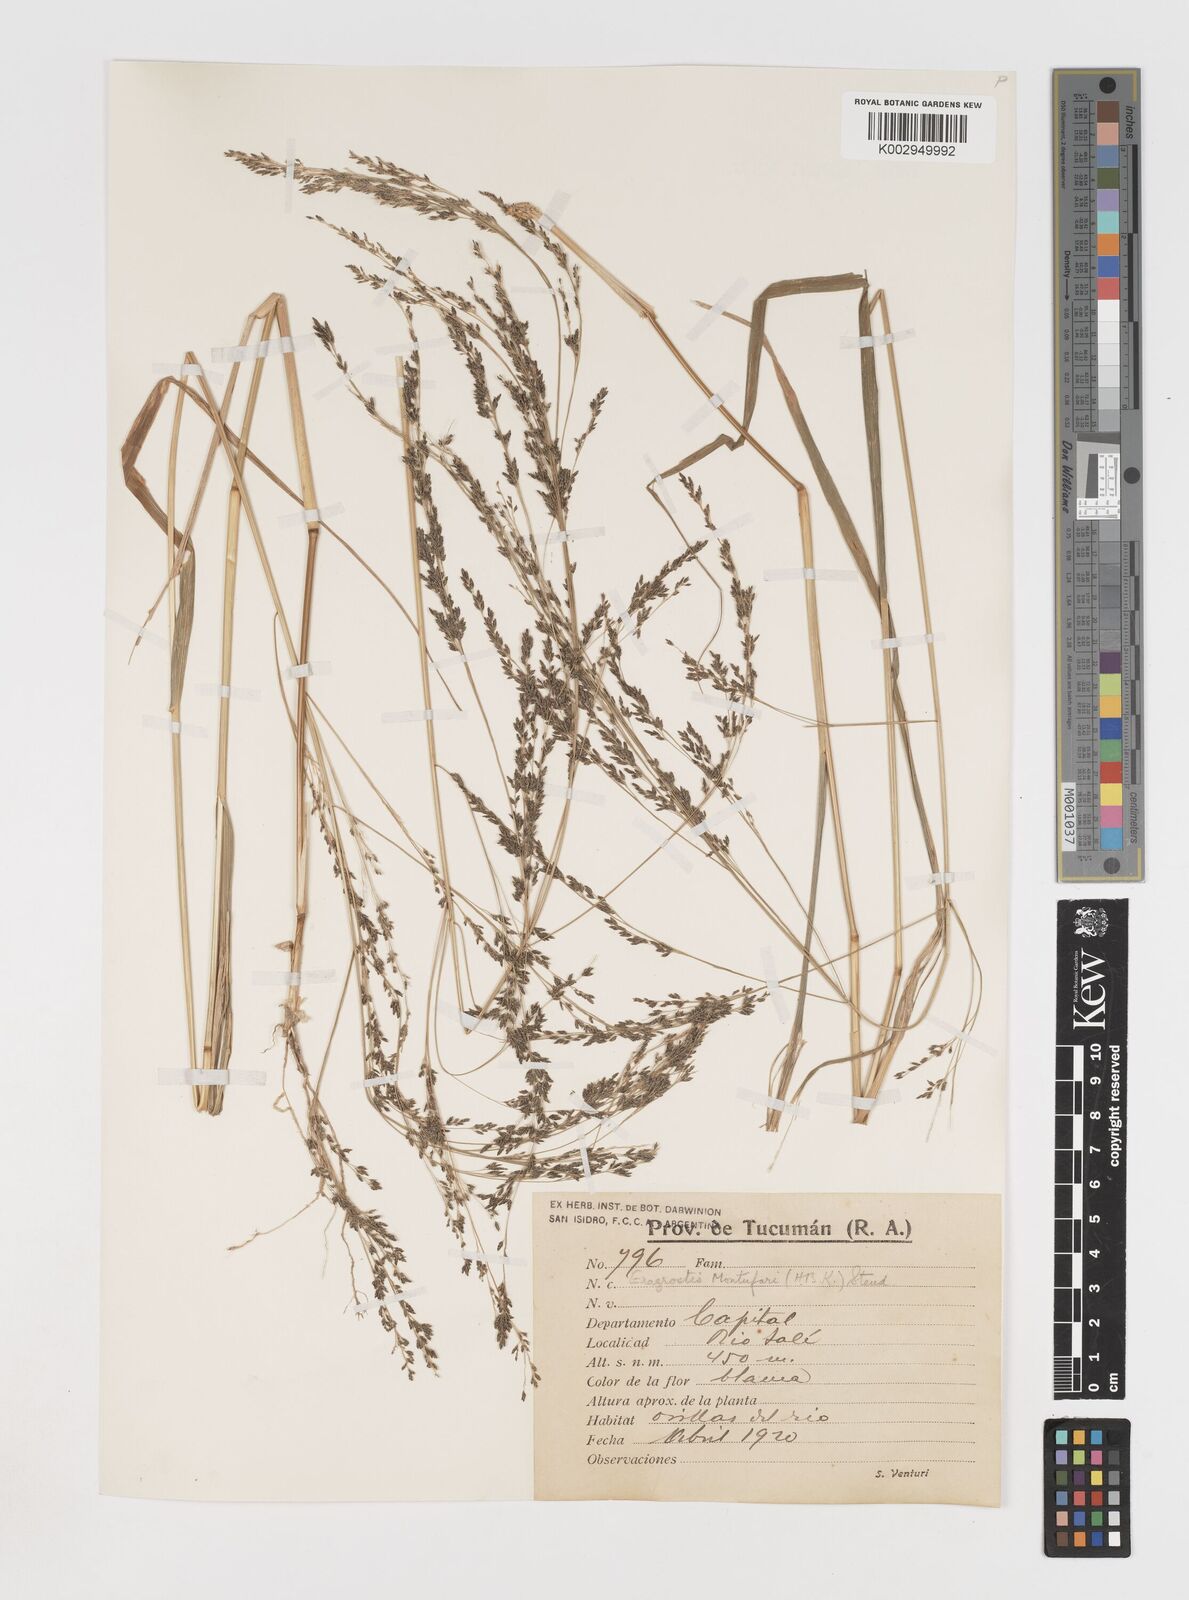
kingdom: Plantae
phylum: Tracheophyta
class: Liliopsida
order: Poales
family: Poaceae
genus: Eragrostis
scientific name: Eragrostis pastoensis
